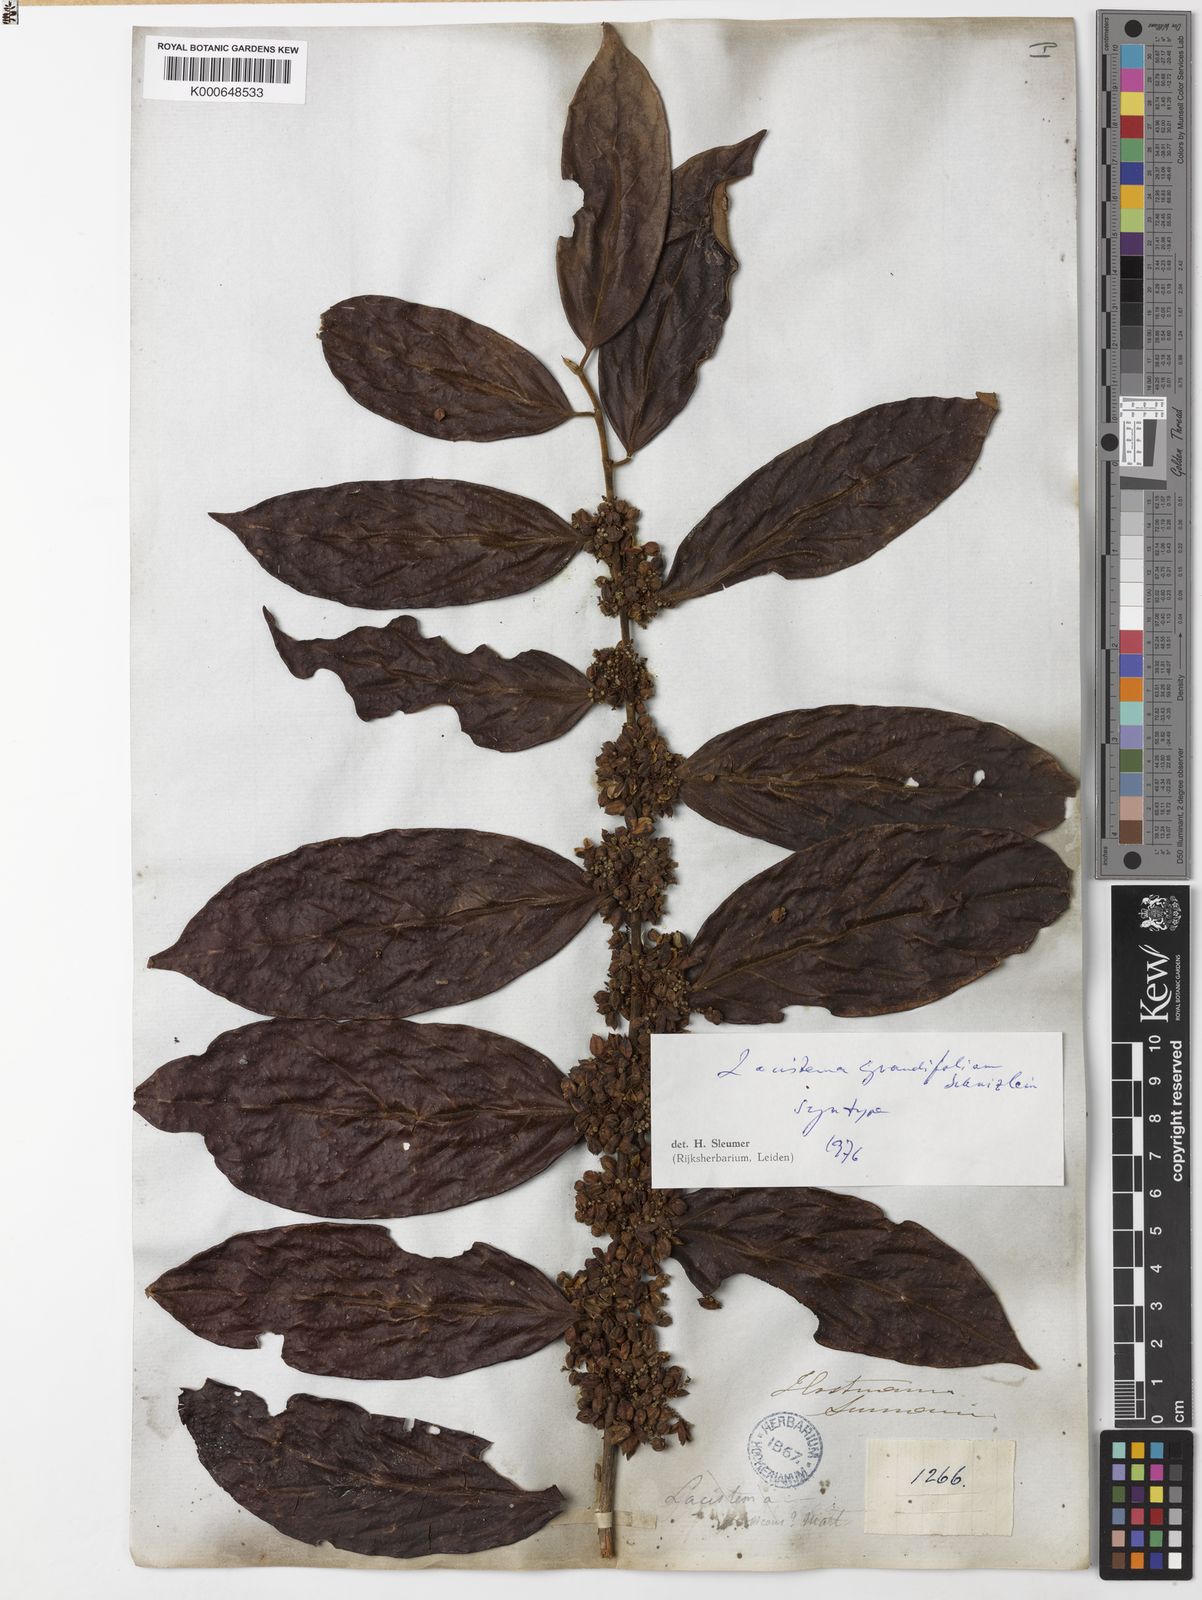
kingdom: Plantae
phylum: Tracheophyta
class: Magnoliopsida
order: Malpighiales
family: Lacistemataceae
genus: Lacistema
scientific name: Lacistema grandifolium
